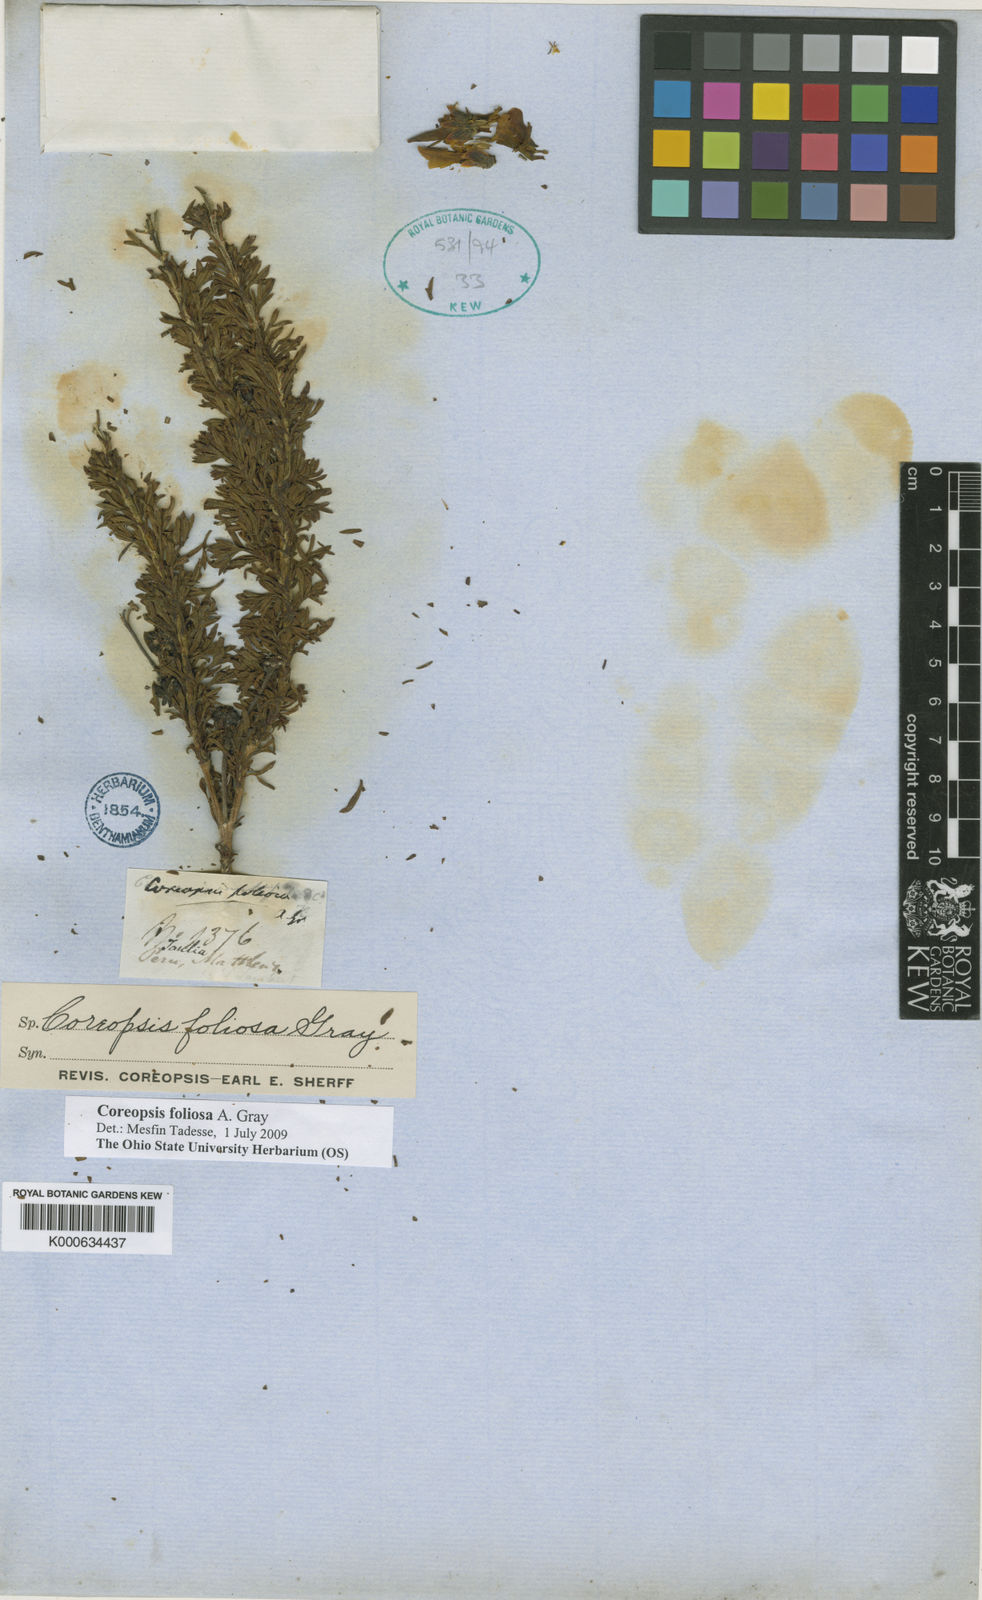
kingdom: Plantae
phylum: Tracheophyta
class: Magnoliopsida
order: Asterales
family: Asteraceae
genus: Coreopsis
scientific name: Coreopsis foliosa
